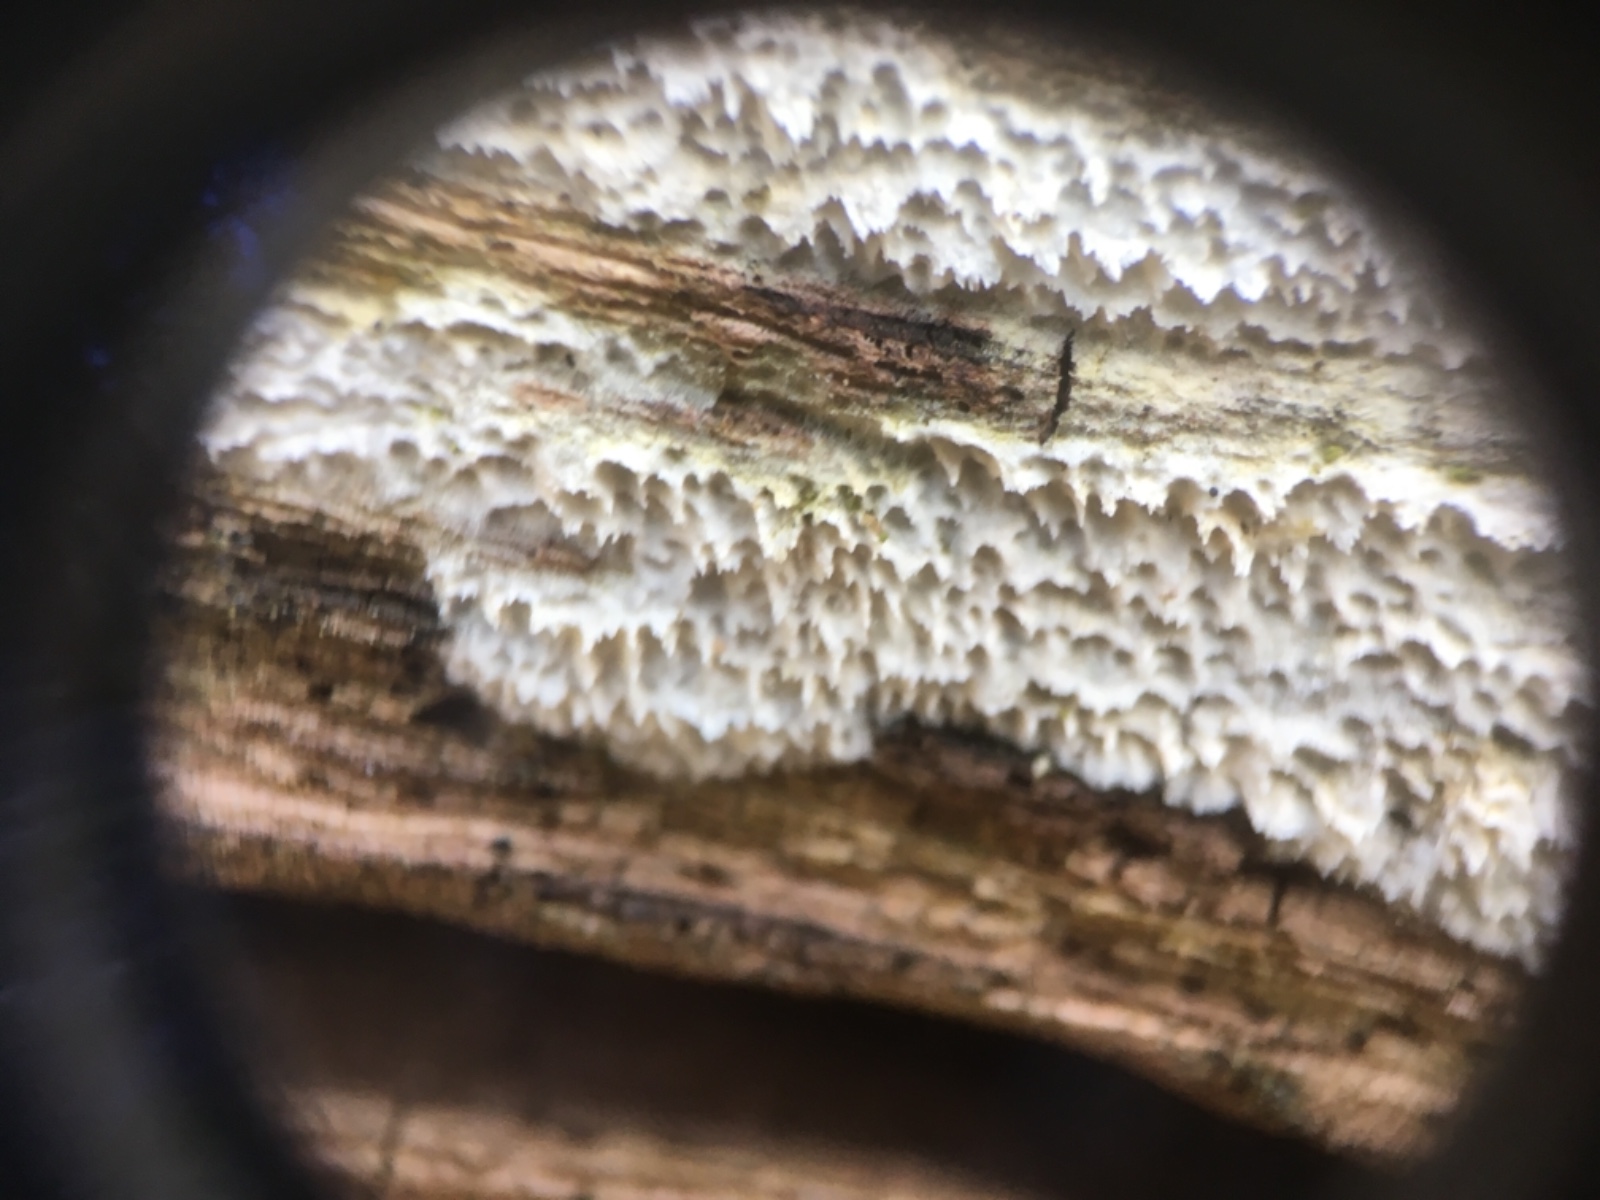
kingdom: Fungi
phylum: Basidiomycota
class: Agaricomycetes
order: Corticiales
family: Corticiaceae
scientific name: Corticiaceae
